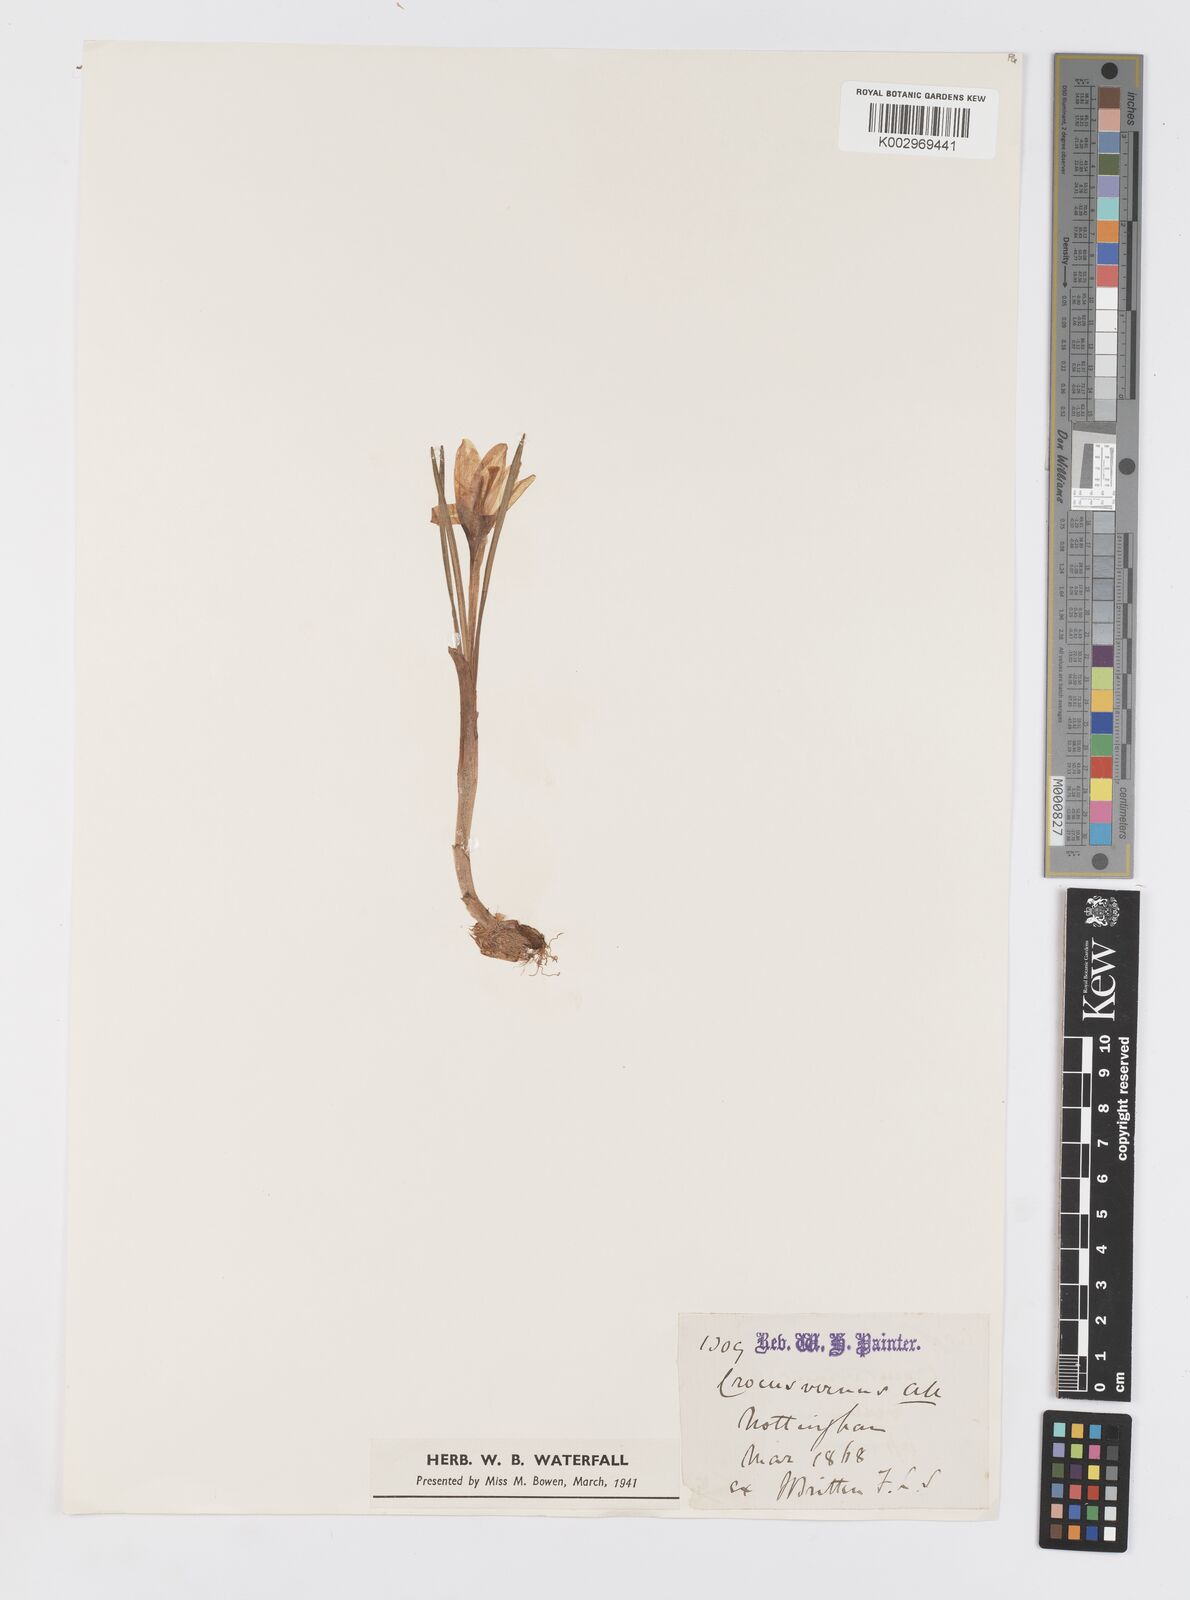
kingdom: Plantae
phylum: Tracheophyta
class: Liliopsida
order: Asparagales
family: Iridaceae
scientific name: Iridaceae
